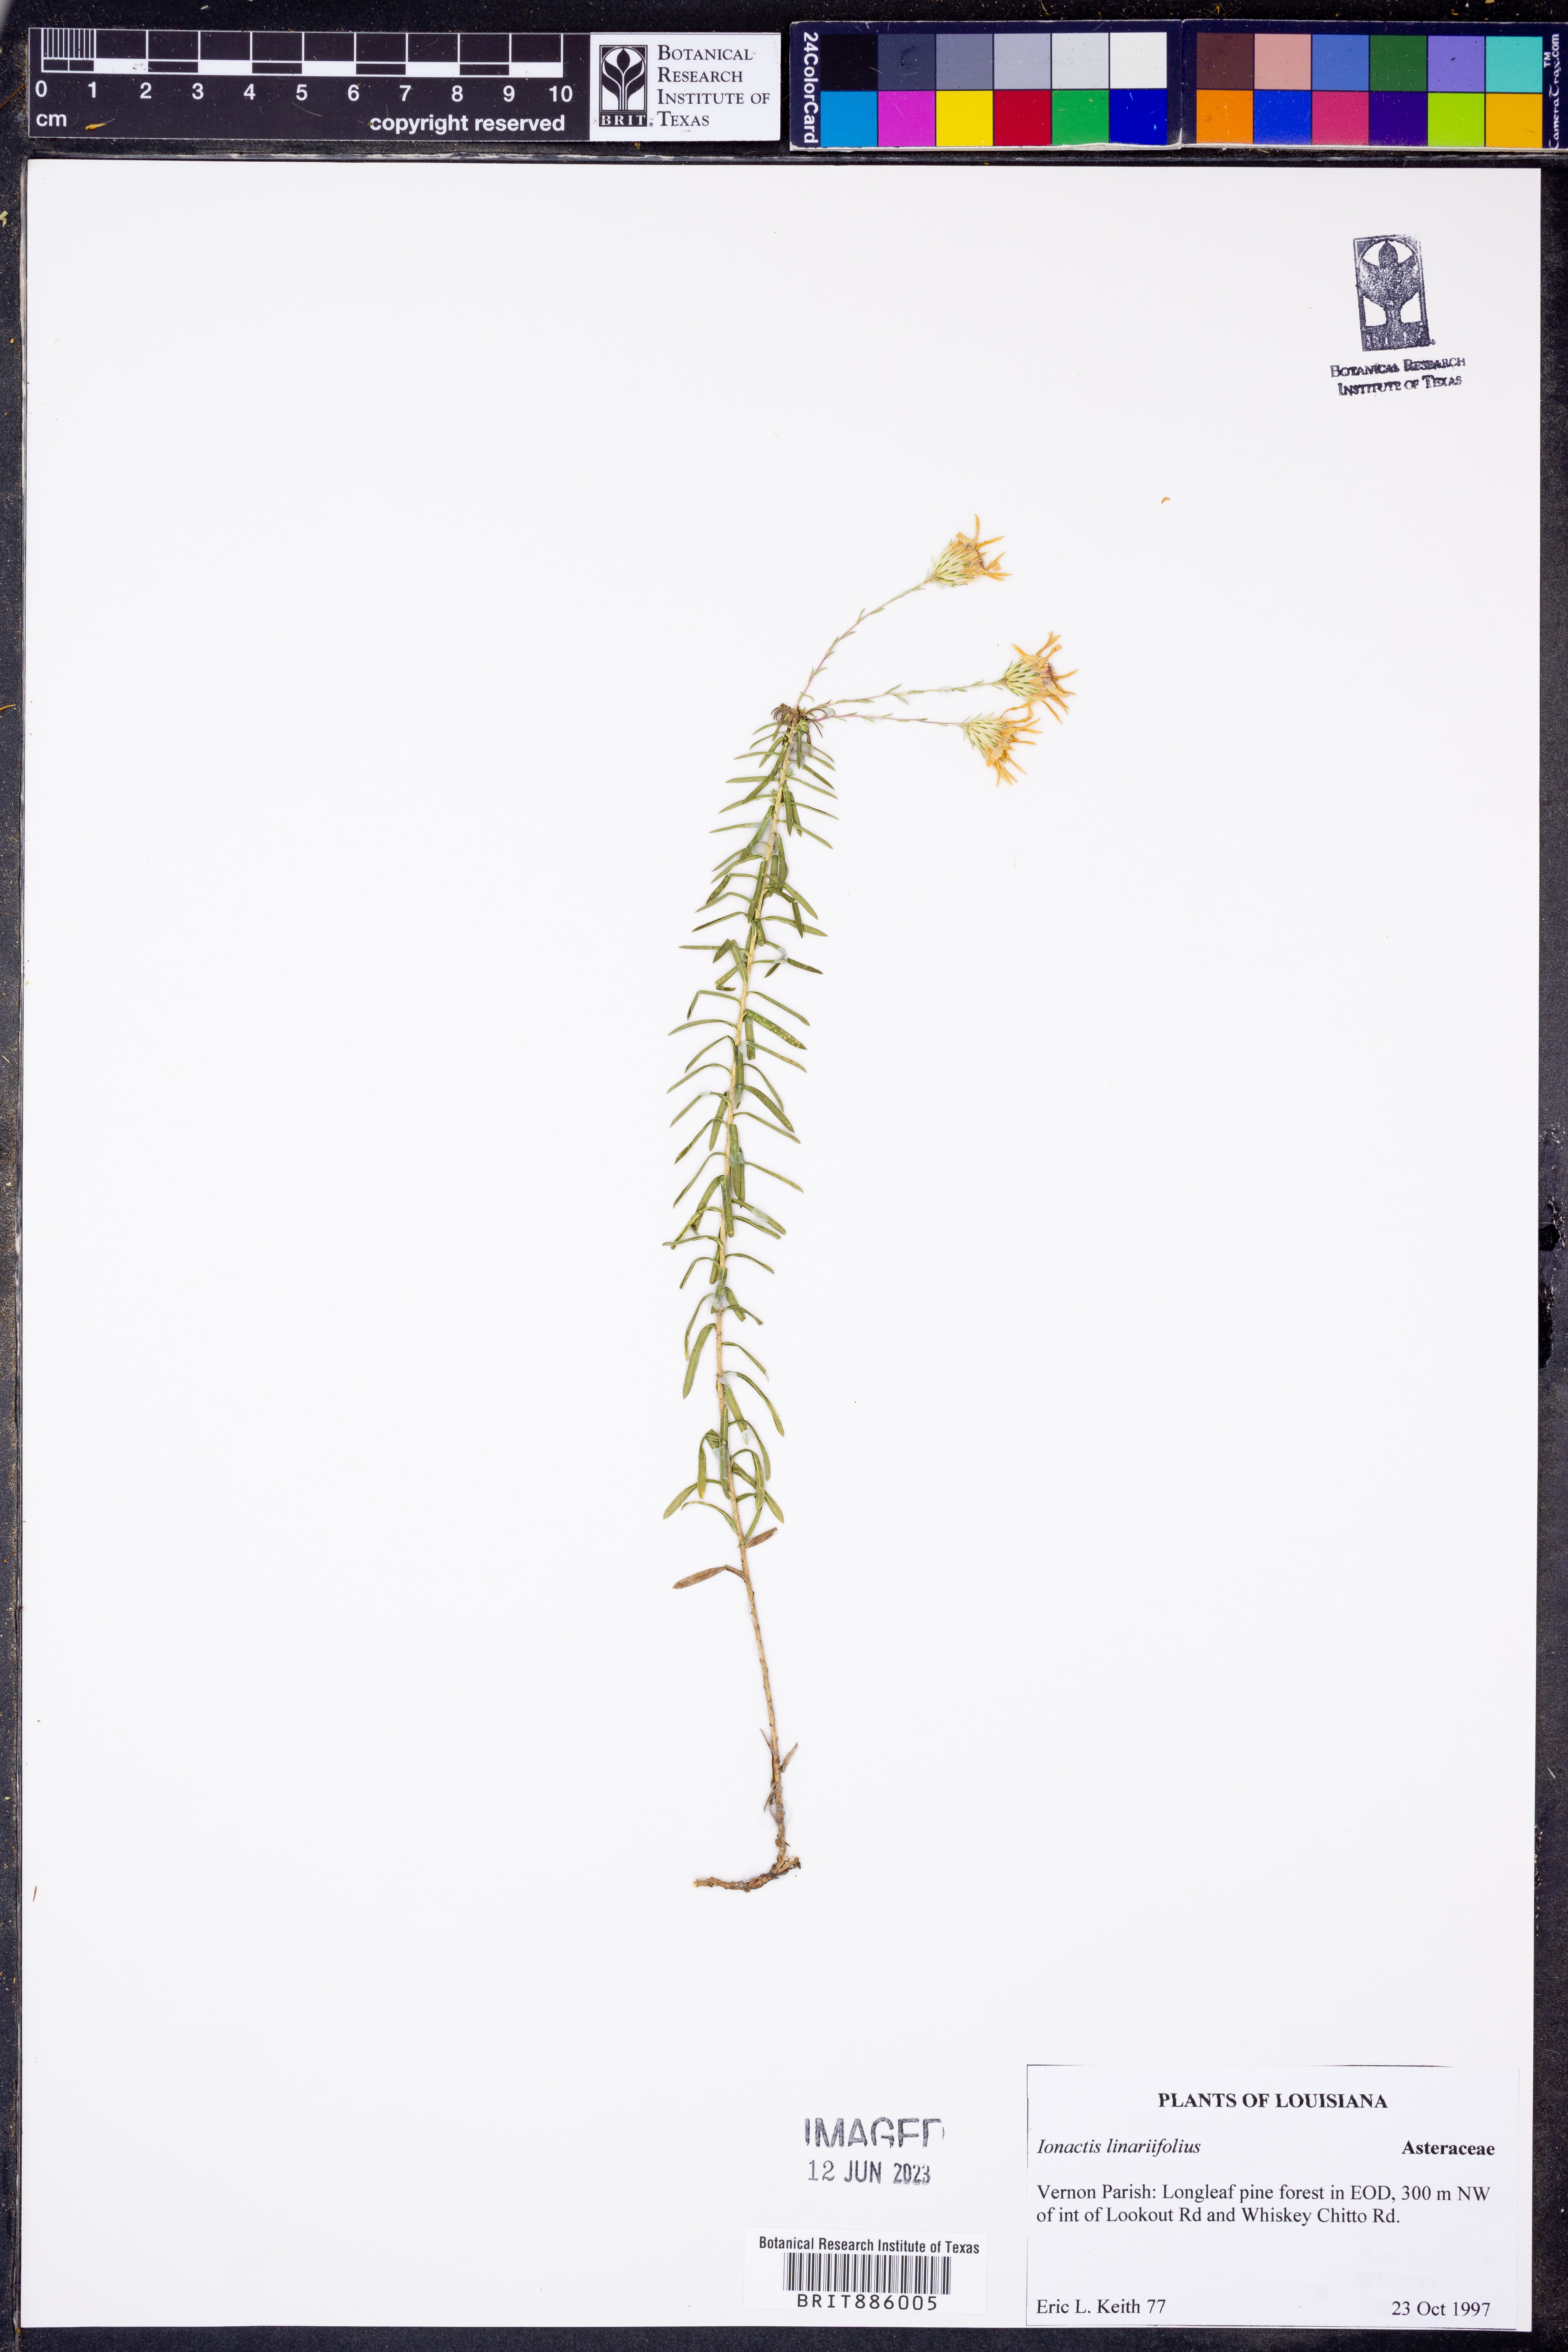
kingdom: Plantae
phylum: Tracheophyta
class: Magnoliopsida
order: Asterales
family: Asteraceae
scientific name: Asteraceae
